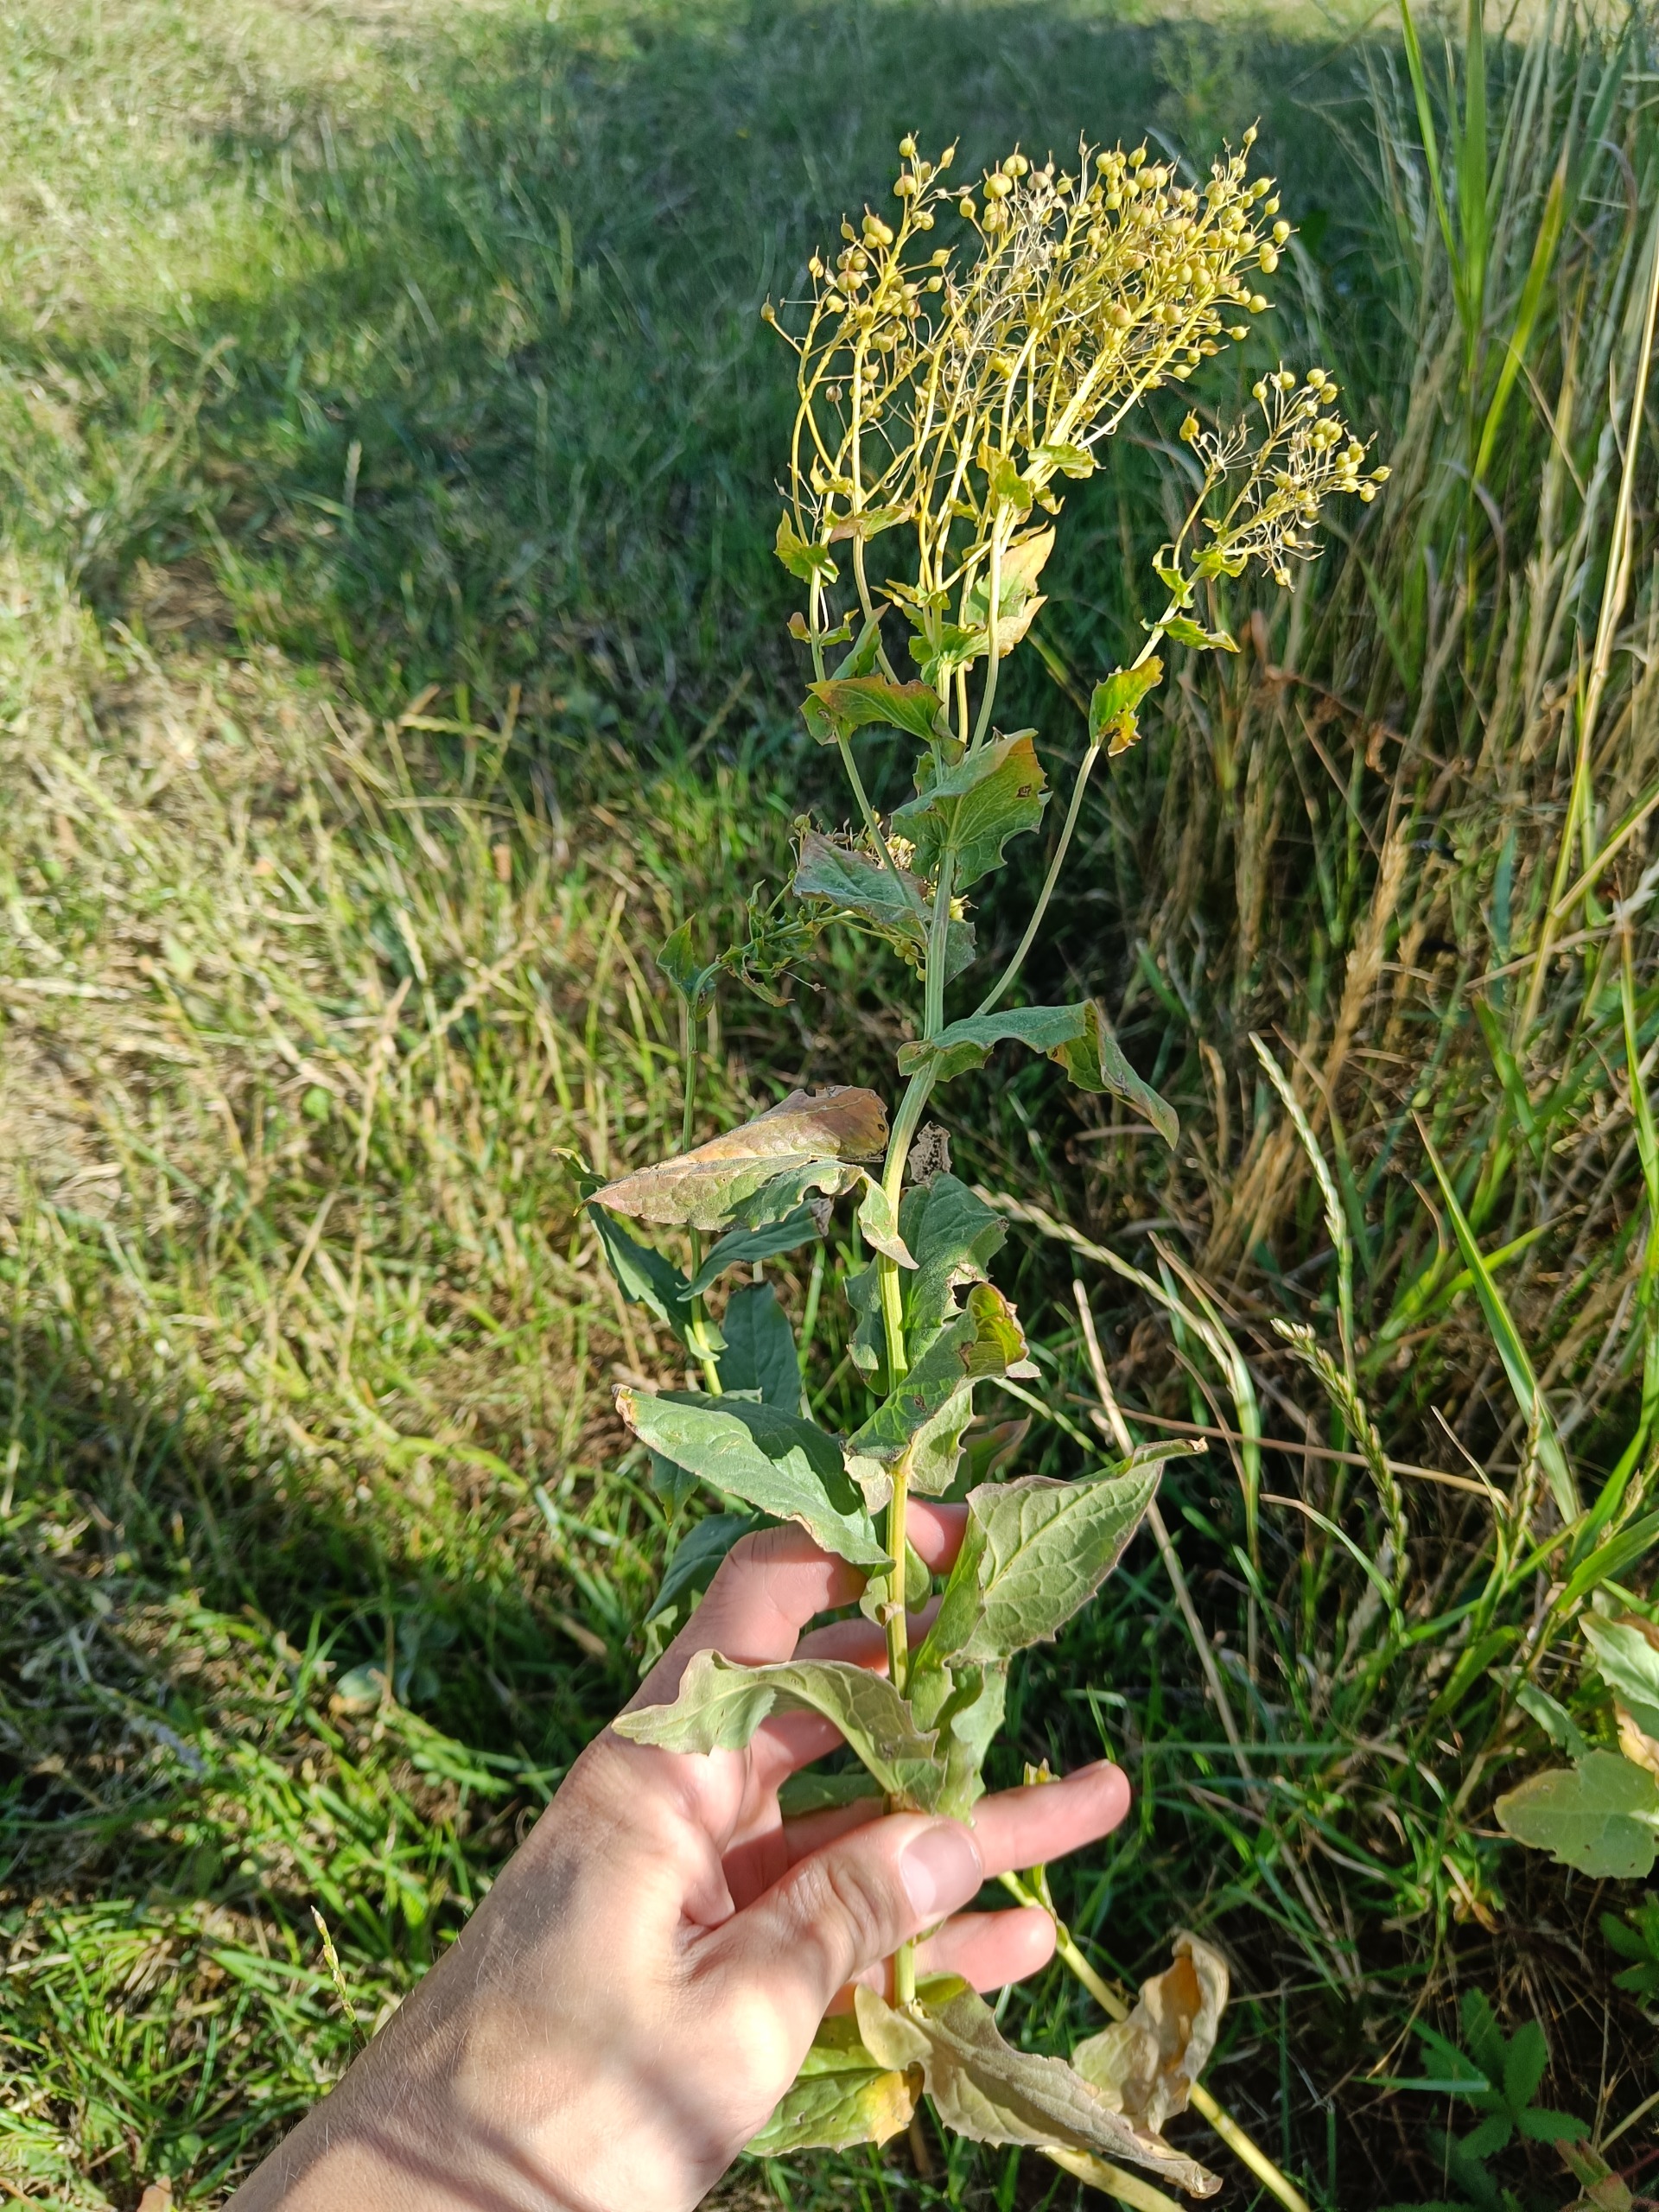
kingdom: Plantae
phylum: Tracheophyta
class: Magnoliopsida
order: Brassicales
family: Brassicaceae
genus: Lepidium
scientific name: Lepidium draba
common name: Hjerte-karse
